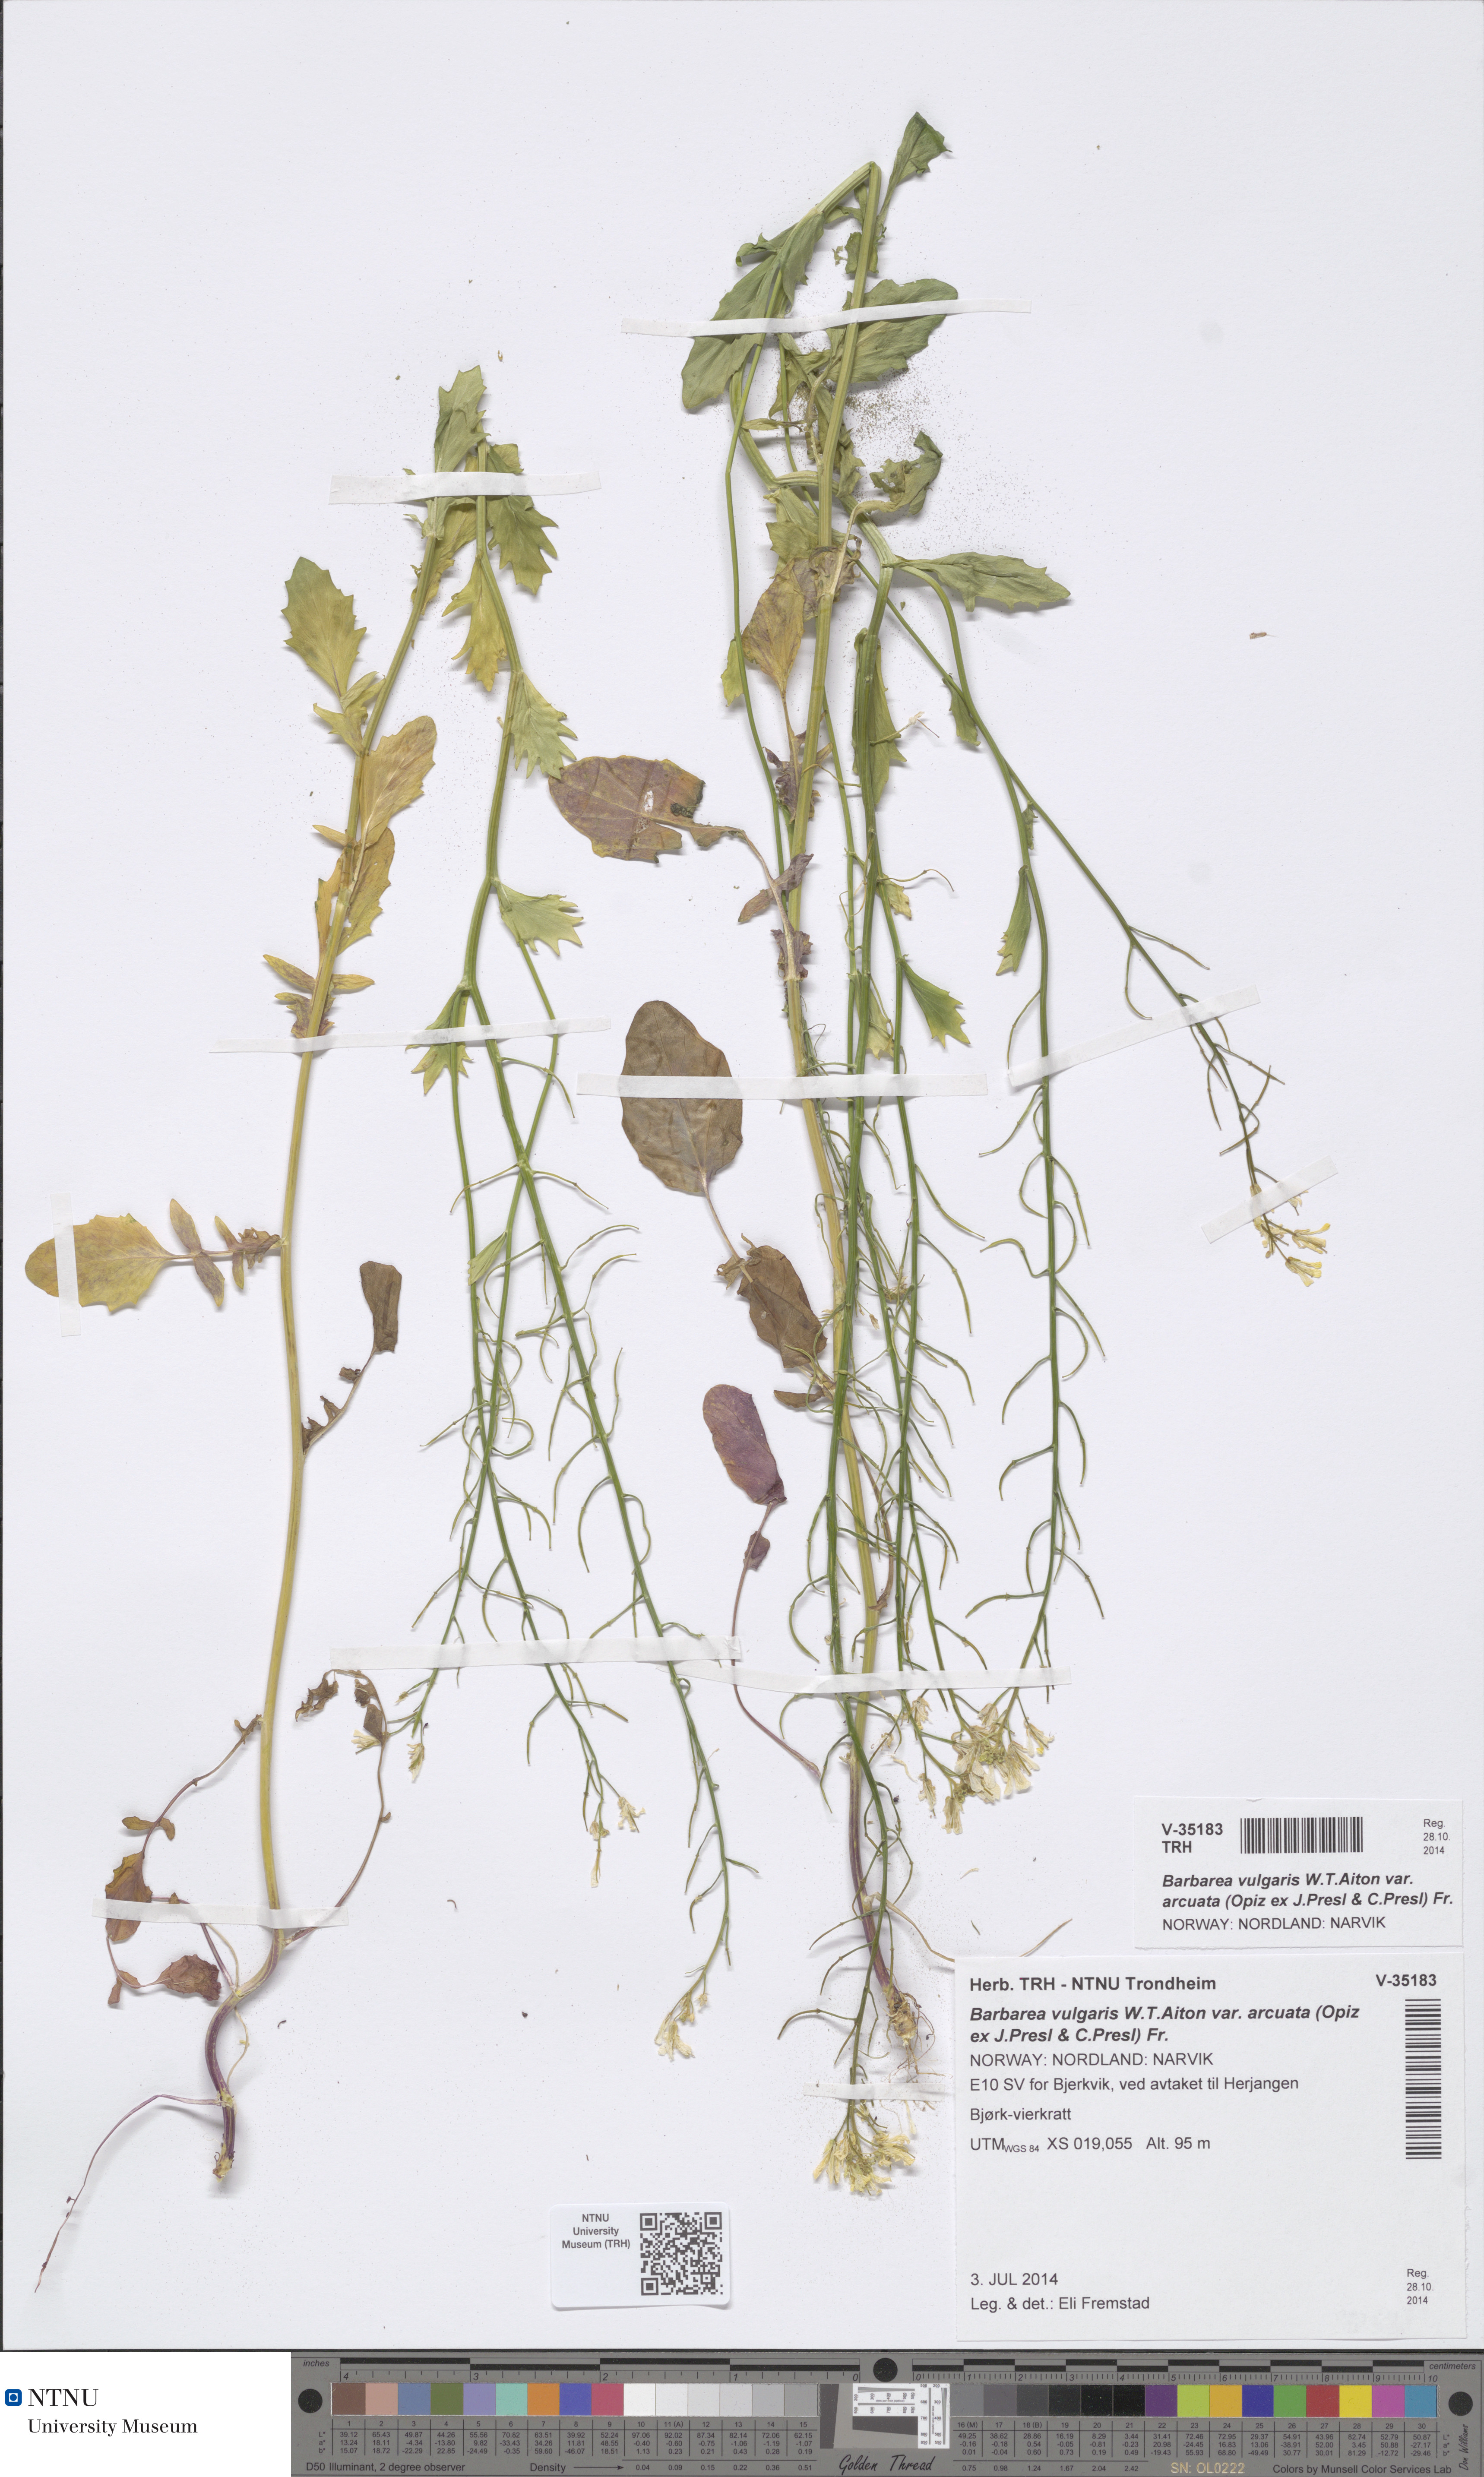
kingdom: Plantae
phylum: Tracheophyta
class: Magnoliopsida
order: Brassicales
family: Brassicaceae
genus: Barbarea
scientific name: Barbarea vulgaris
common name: Cressy-greens
